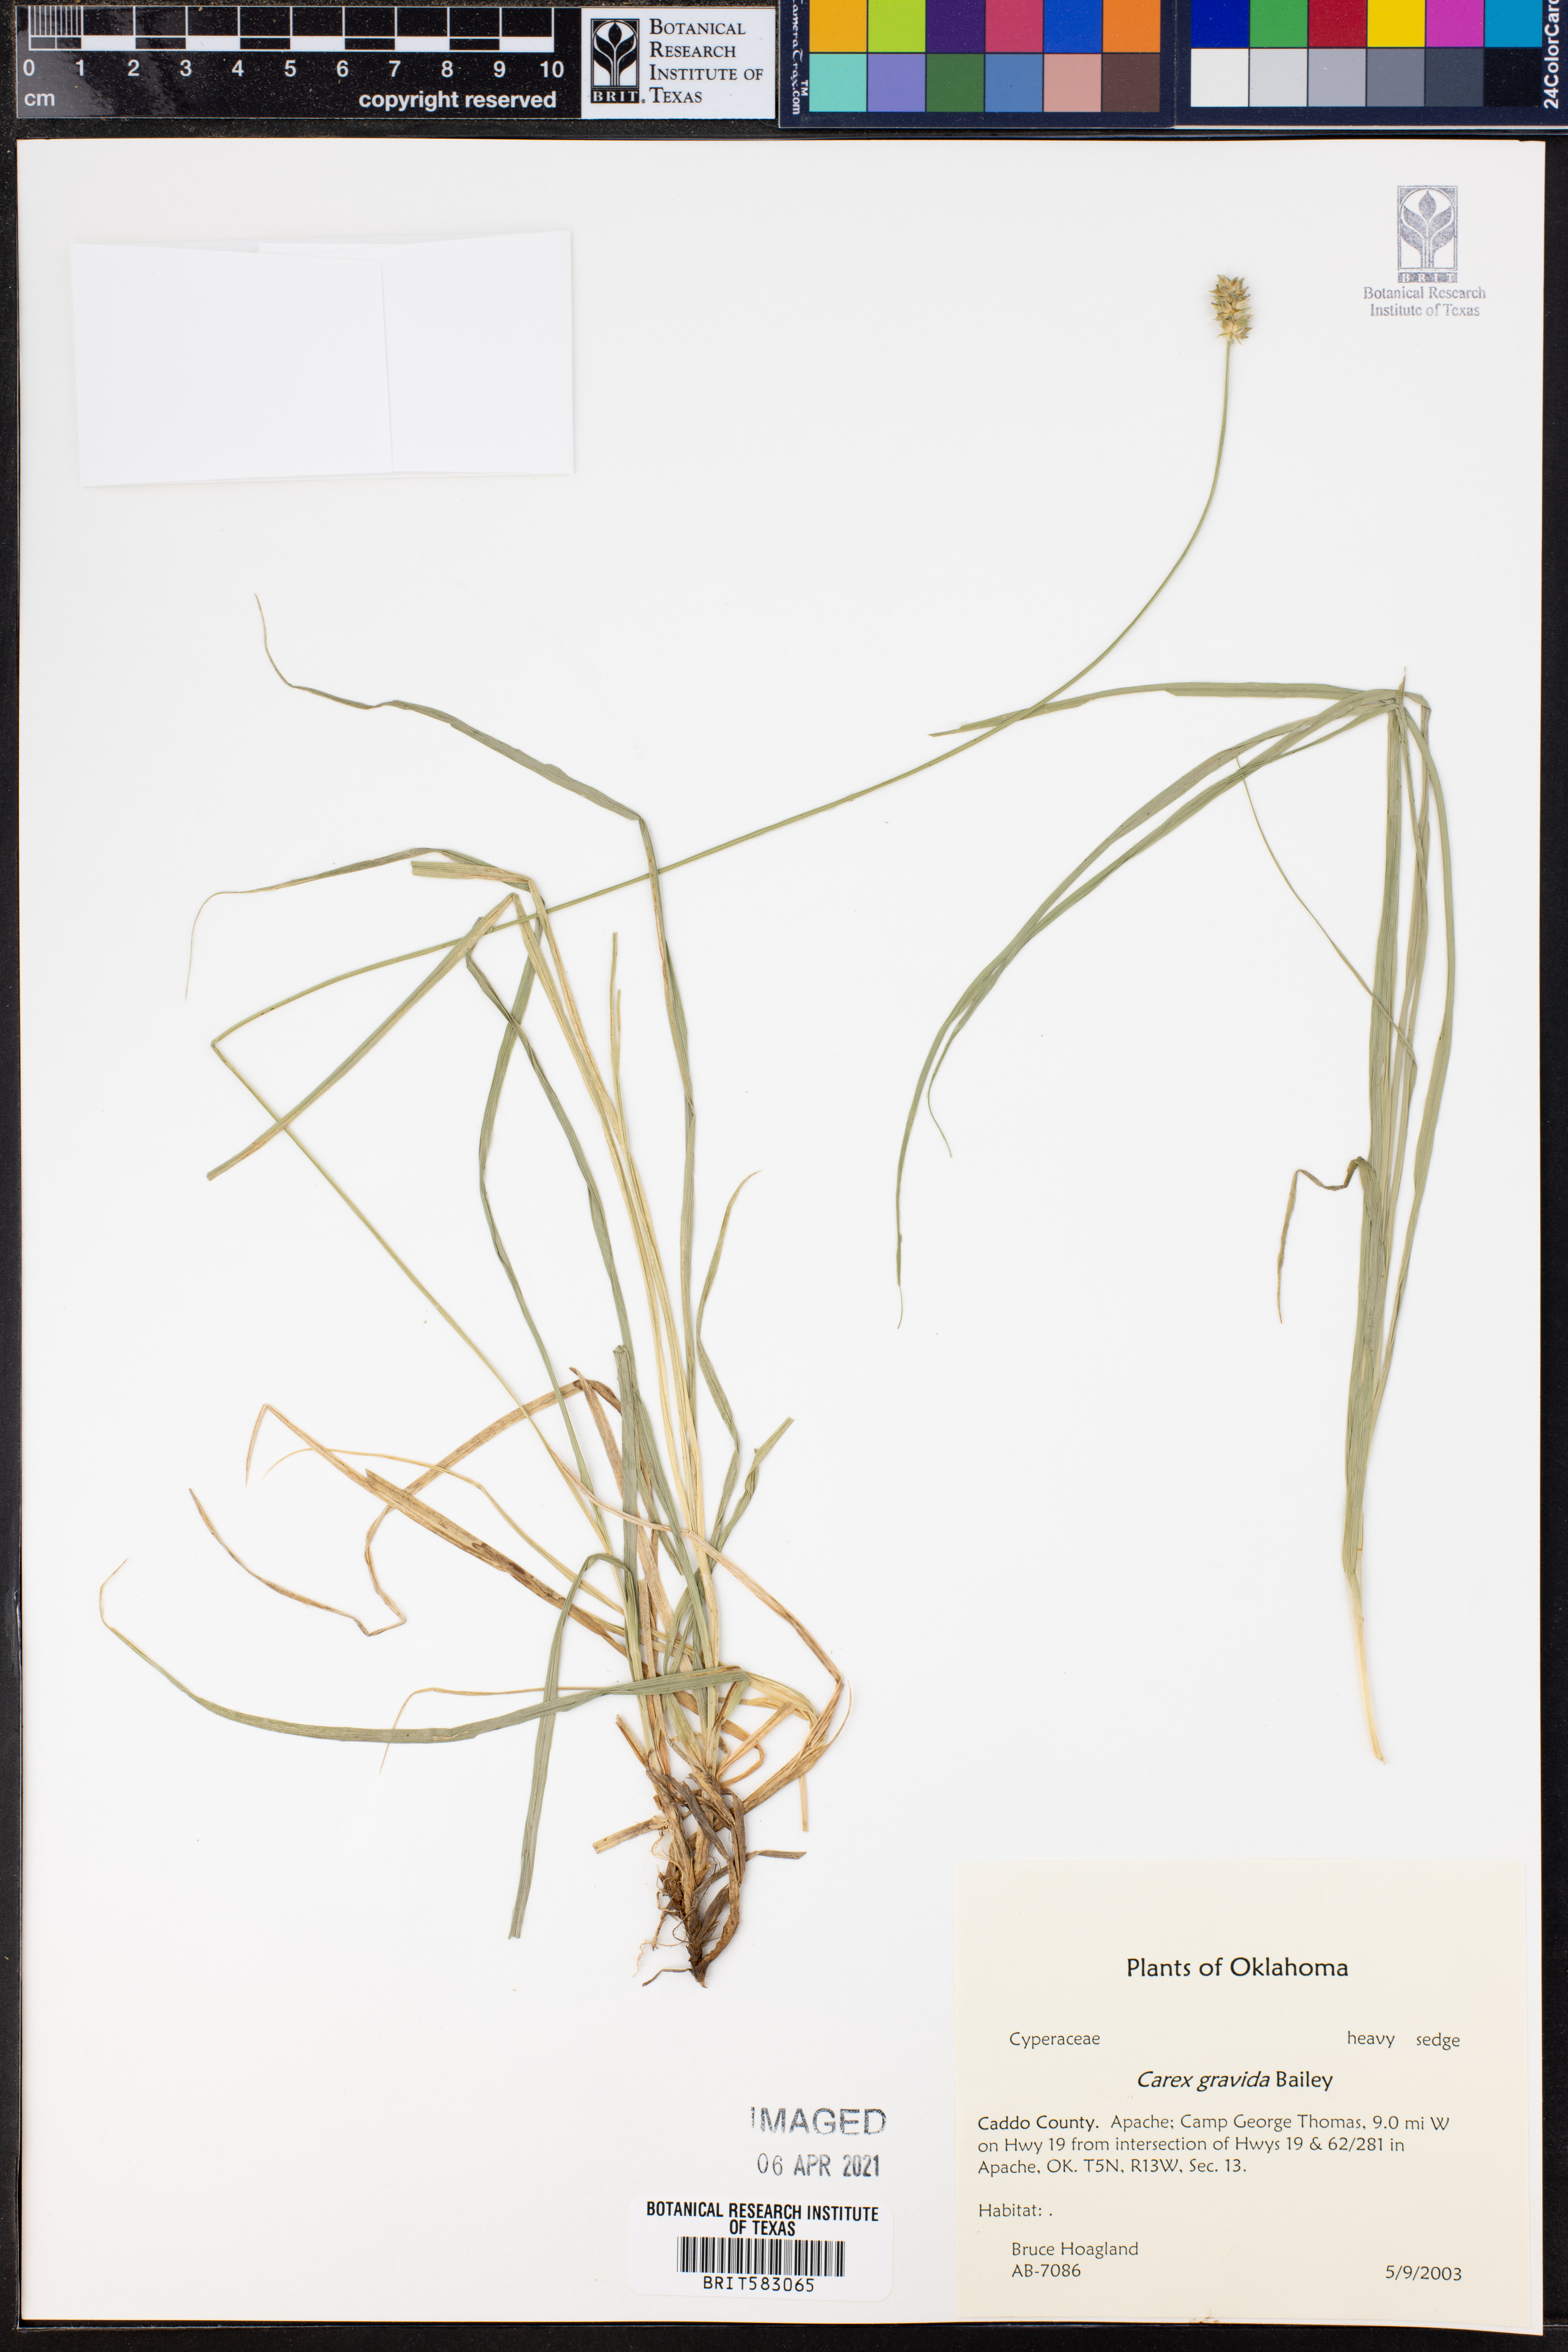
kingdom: Plantae
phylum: Tracheophyta
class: Liliopsida
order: Poales
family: Cyperaceae
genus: Carex
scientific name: Carex gravida
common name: Heavy sedge
